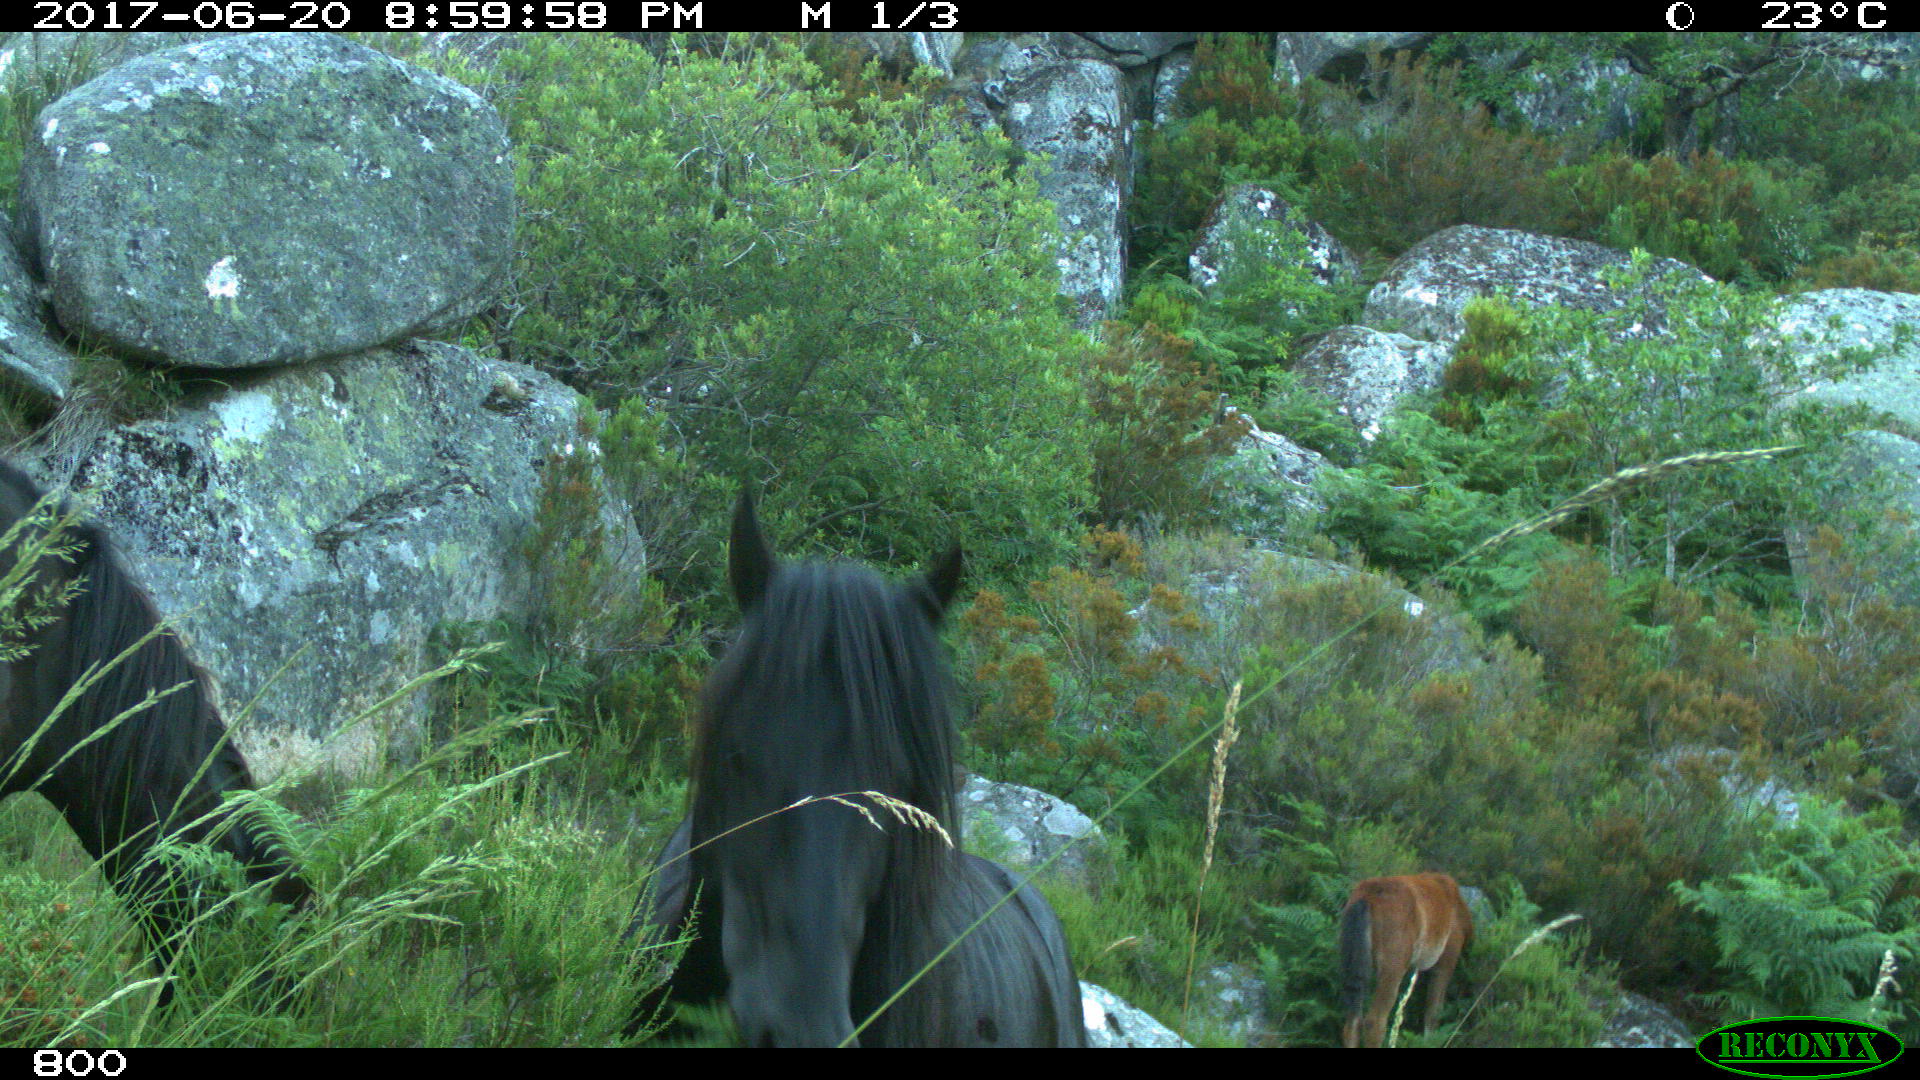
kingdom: Animalia
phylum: Chordata
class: Mammalia
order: Perissodactyla
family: Equidae
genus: Equus
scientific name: Equus caballus
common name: Horse
